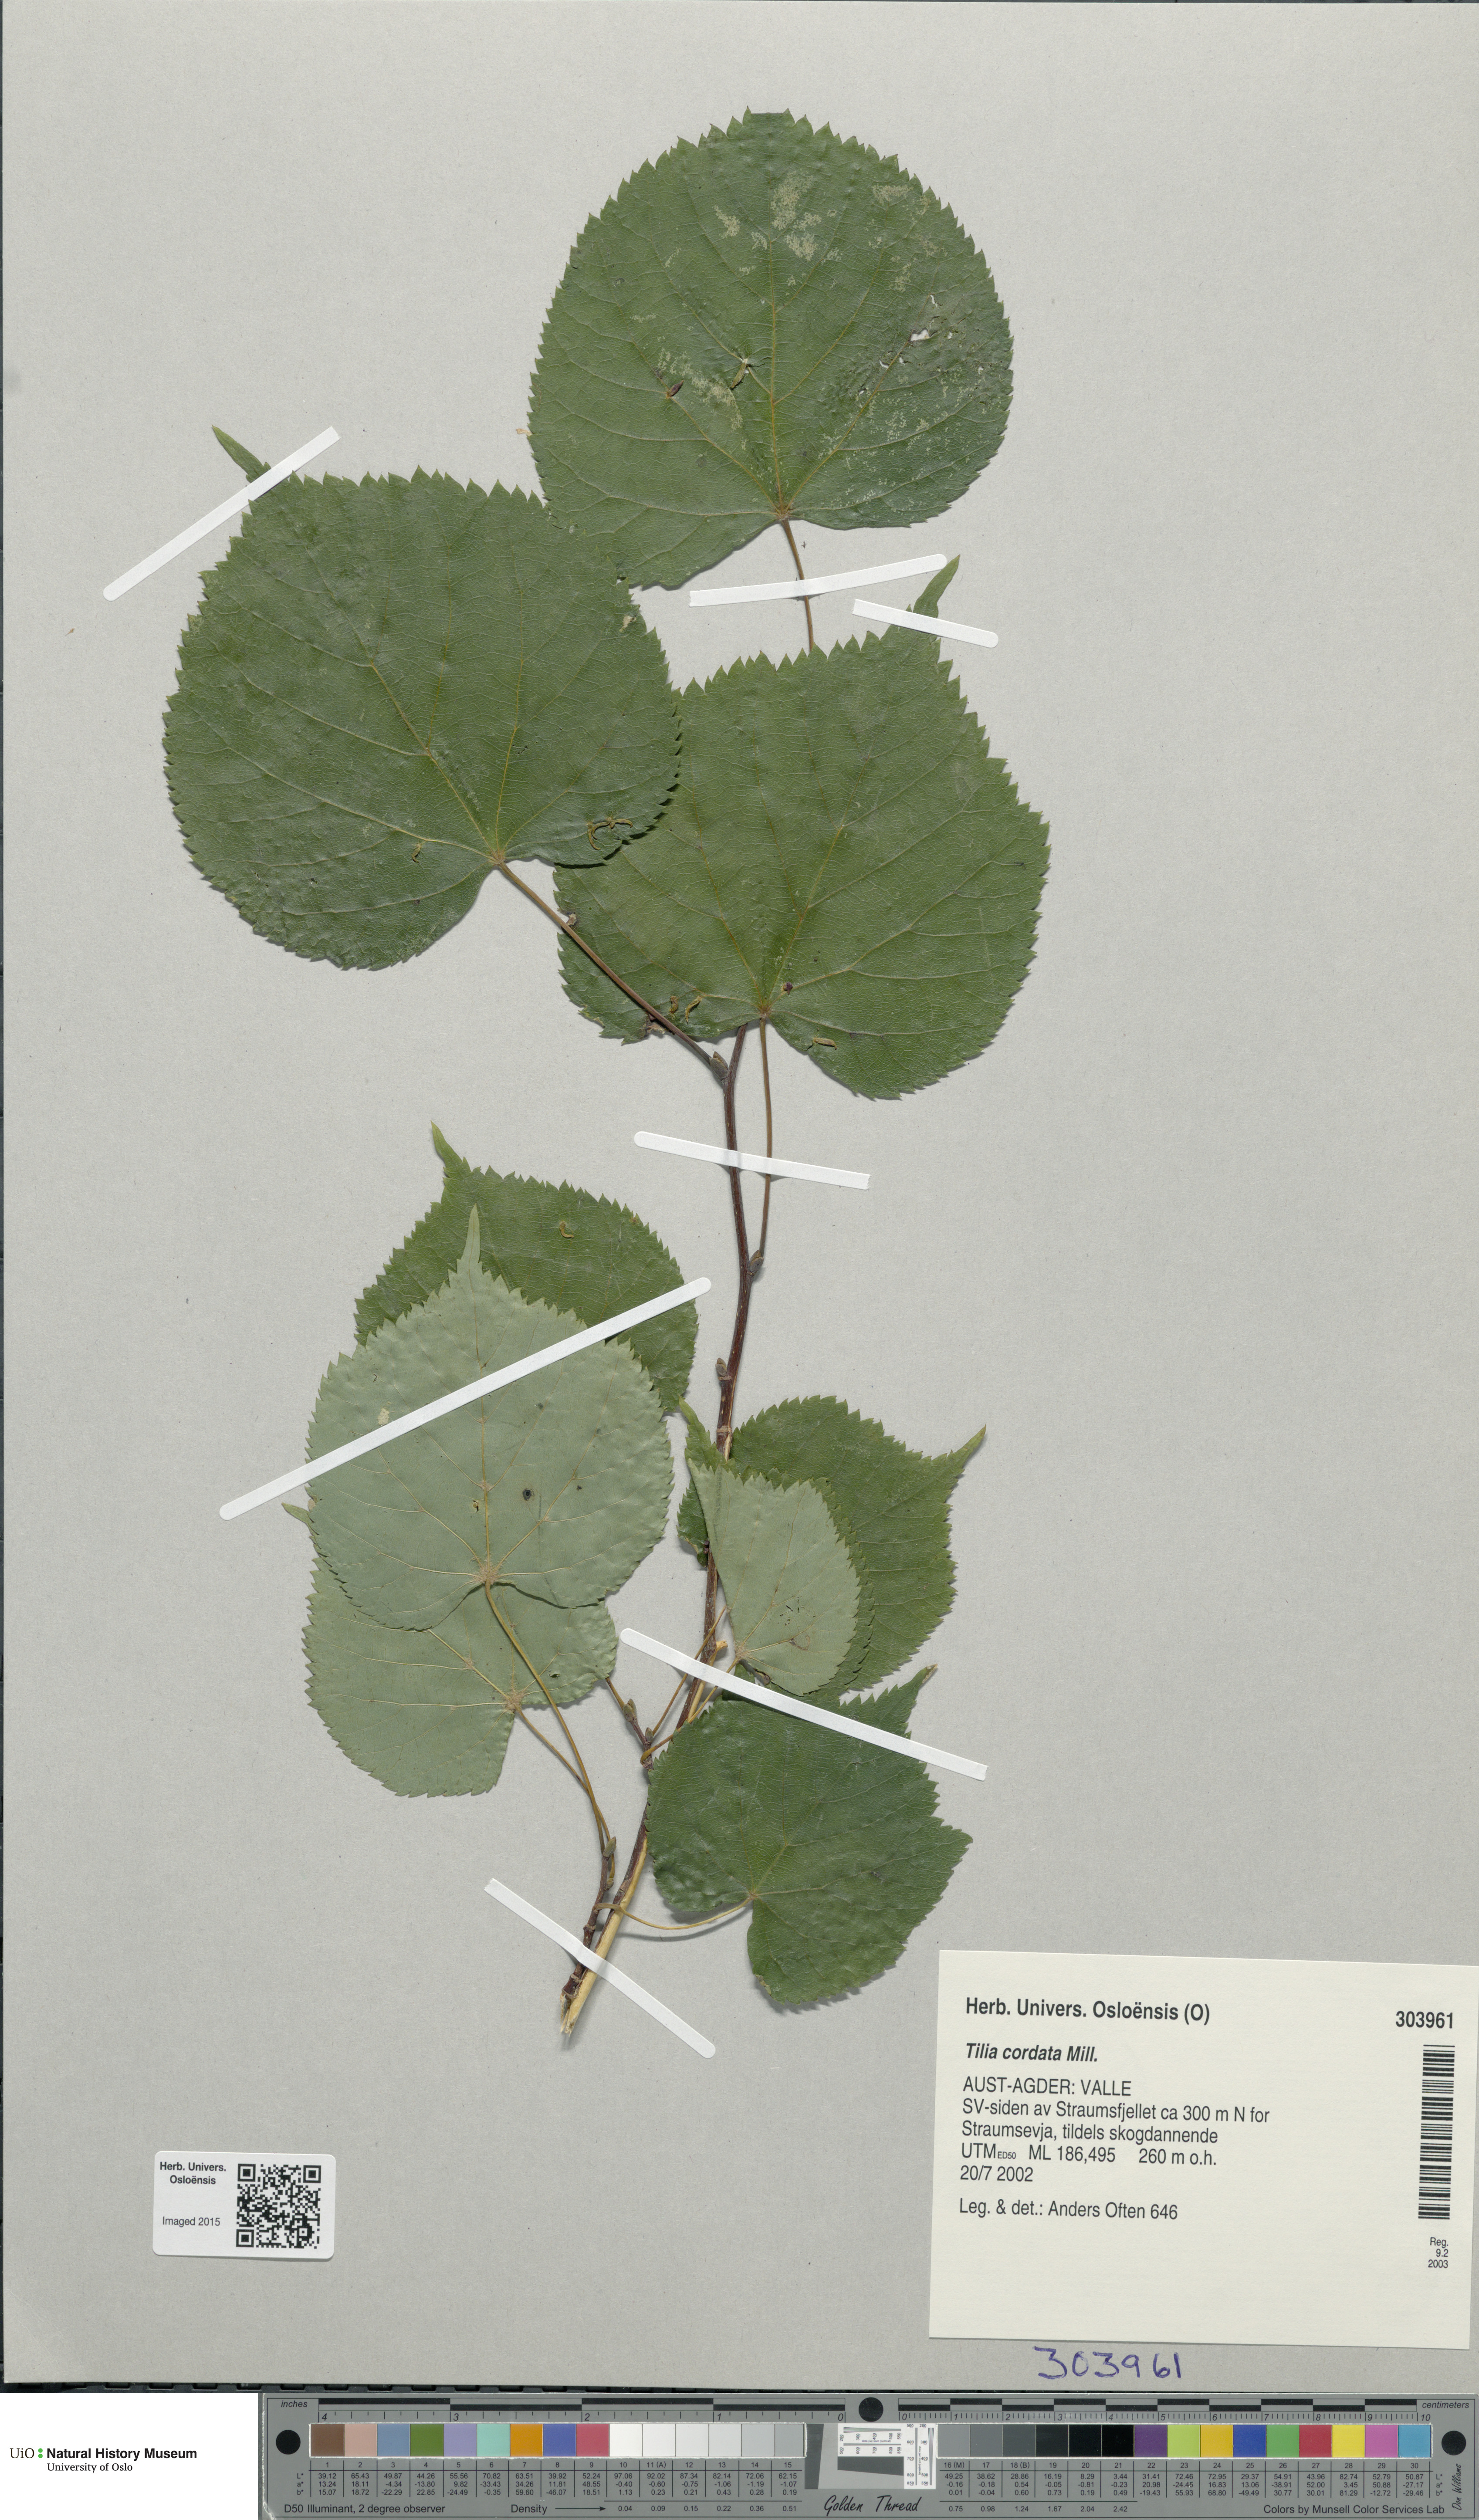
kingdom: Plantae
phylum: Tracheophyta
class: Magnoliopsida
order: Malvales
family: Malvaceae
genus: Tilia
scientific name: Tilia cordata
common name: Small-leaved lime
